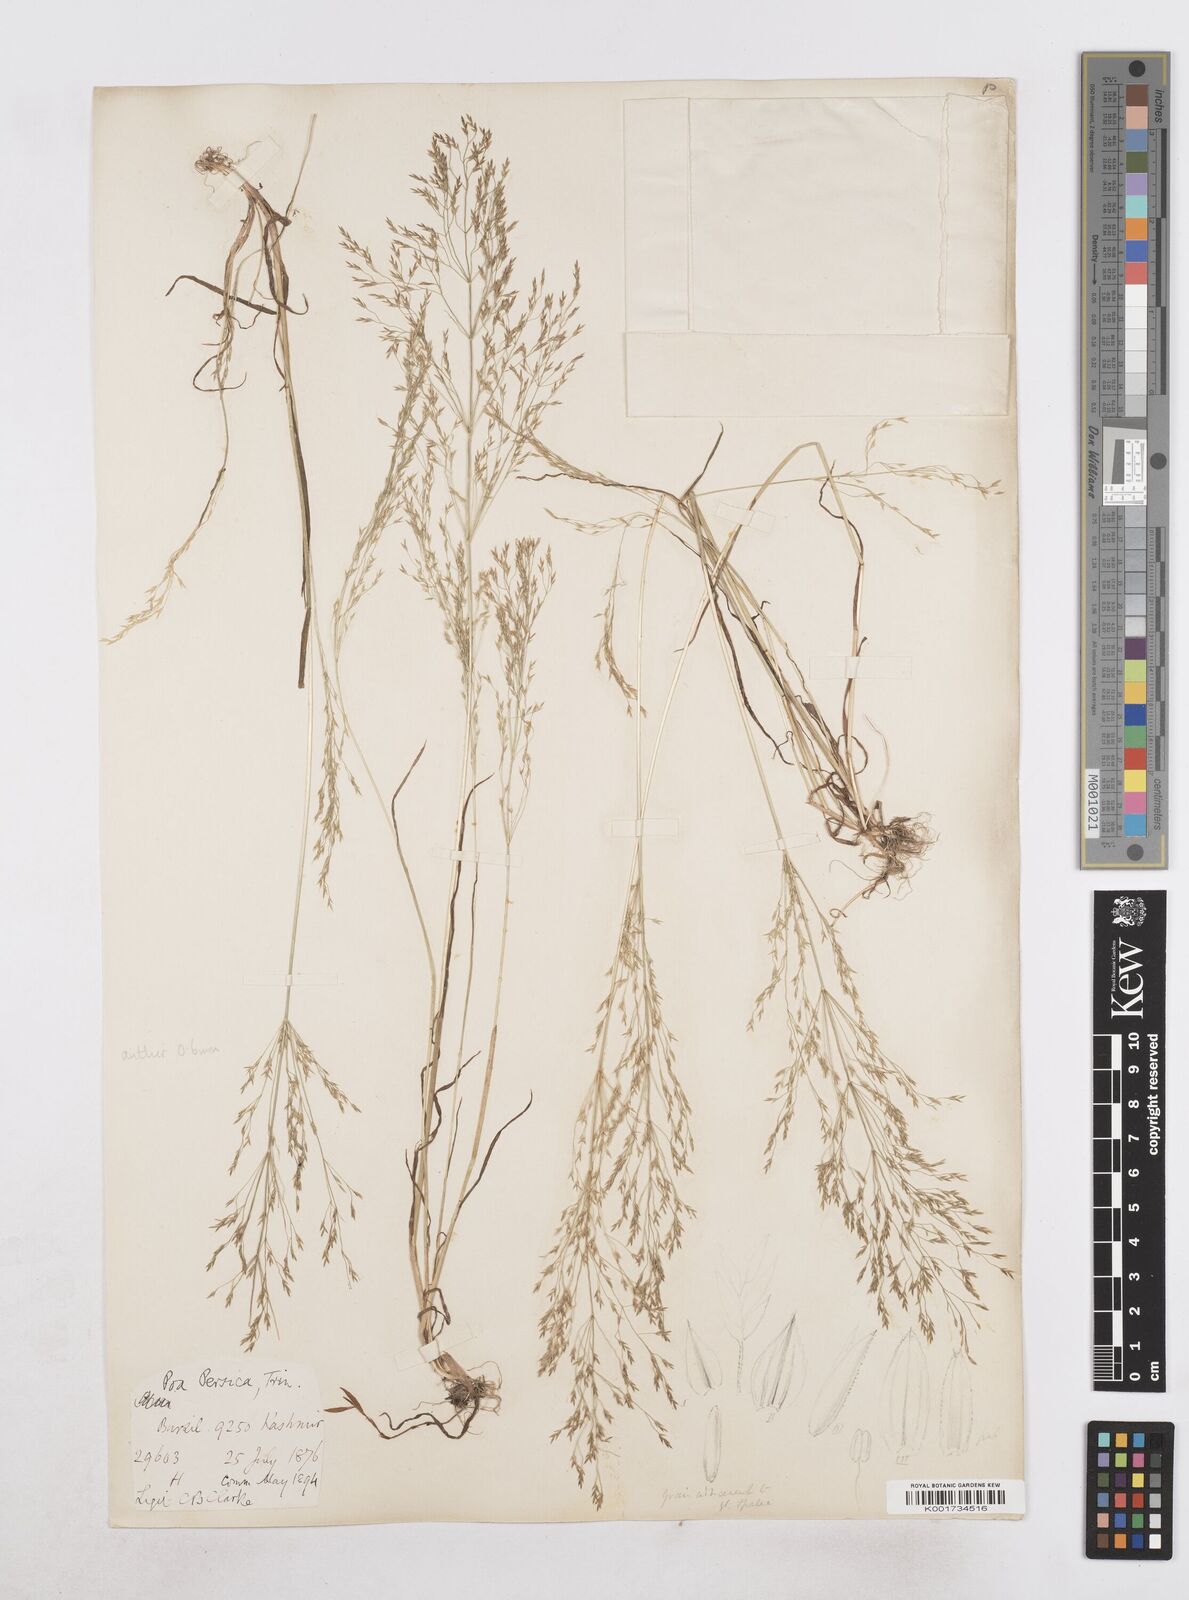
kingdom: Plantae
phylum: Tracheophyta
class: Liliopsida
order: Poales
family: Poaceae
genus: Poa
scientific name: Poa diaphora
